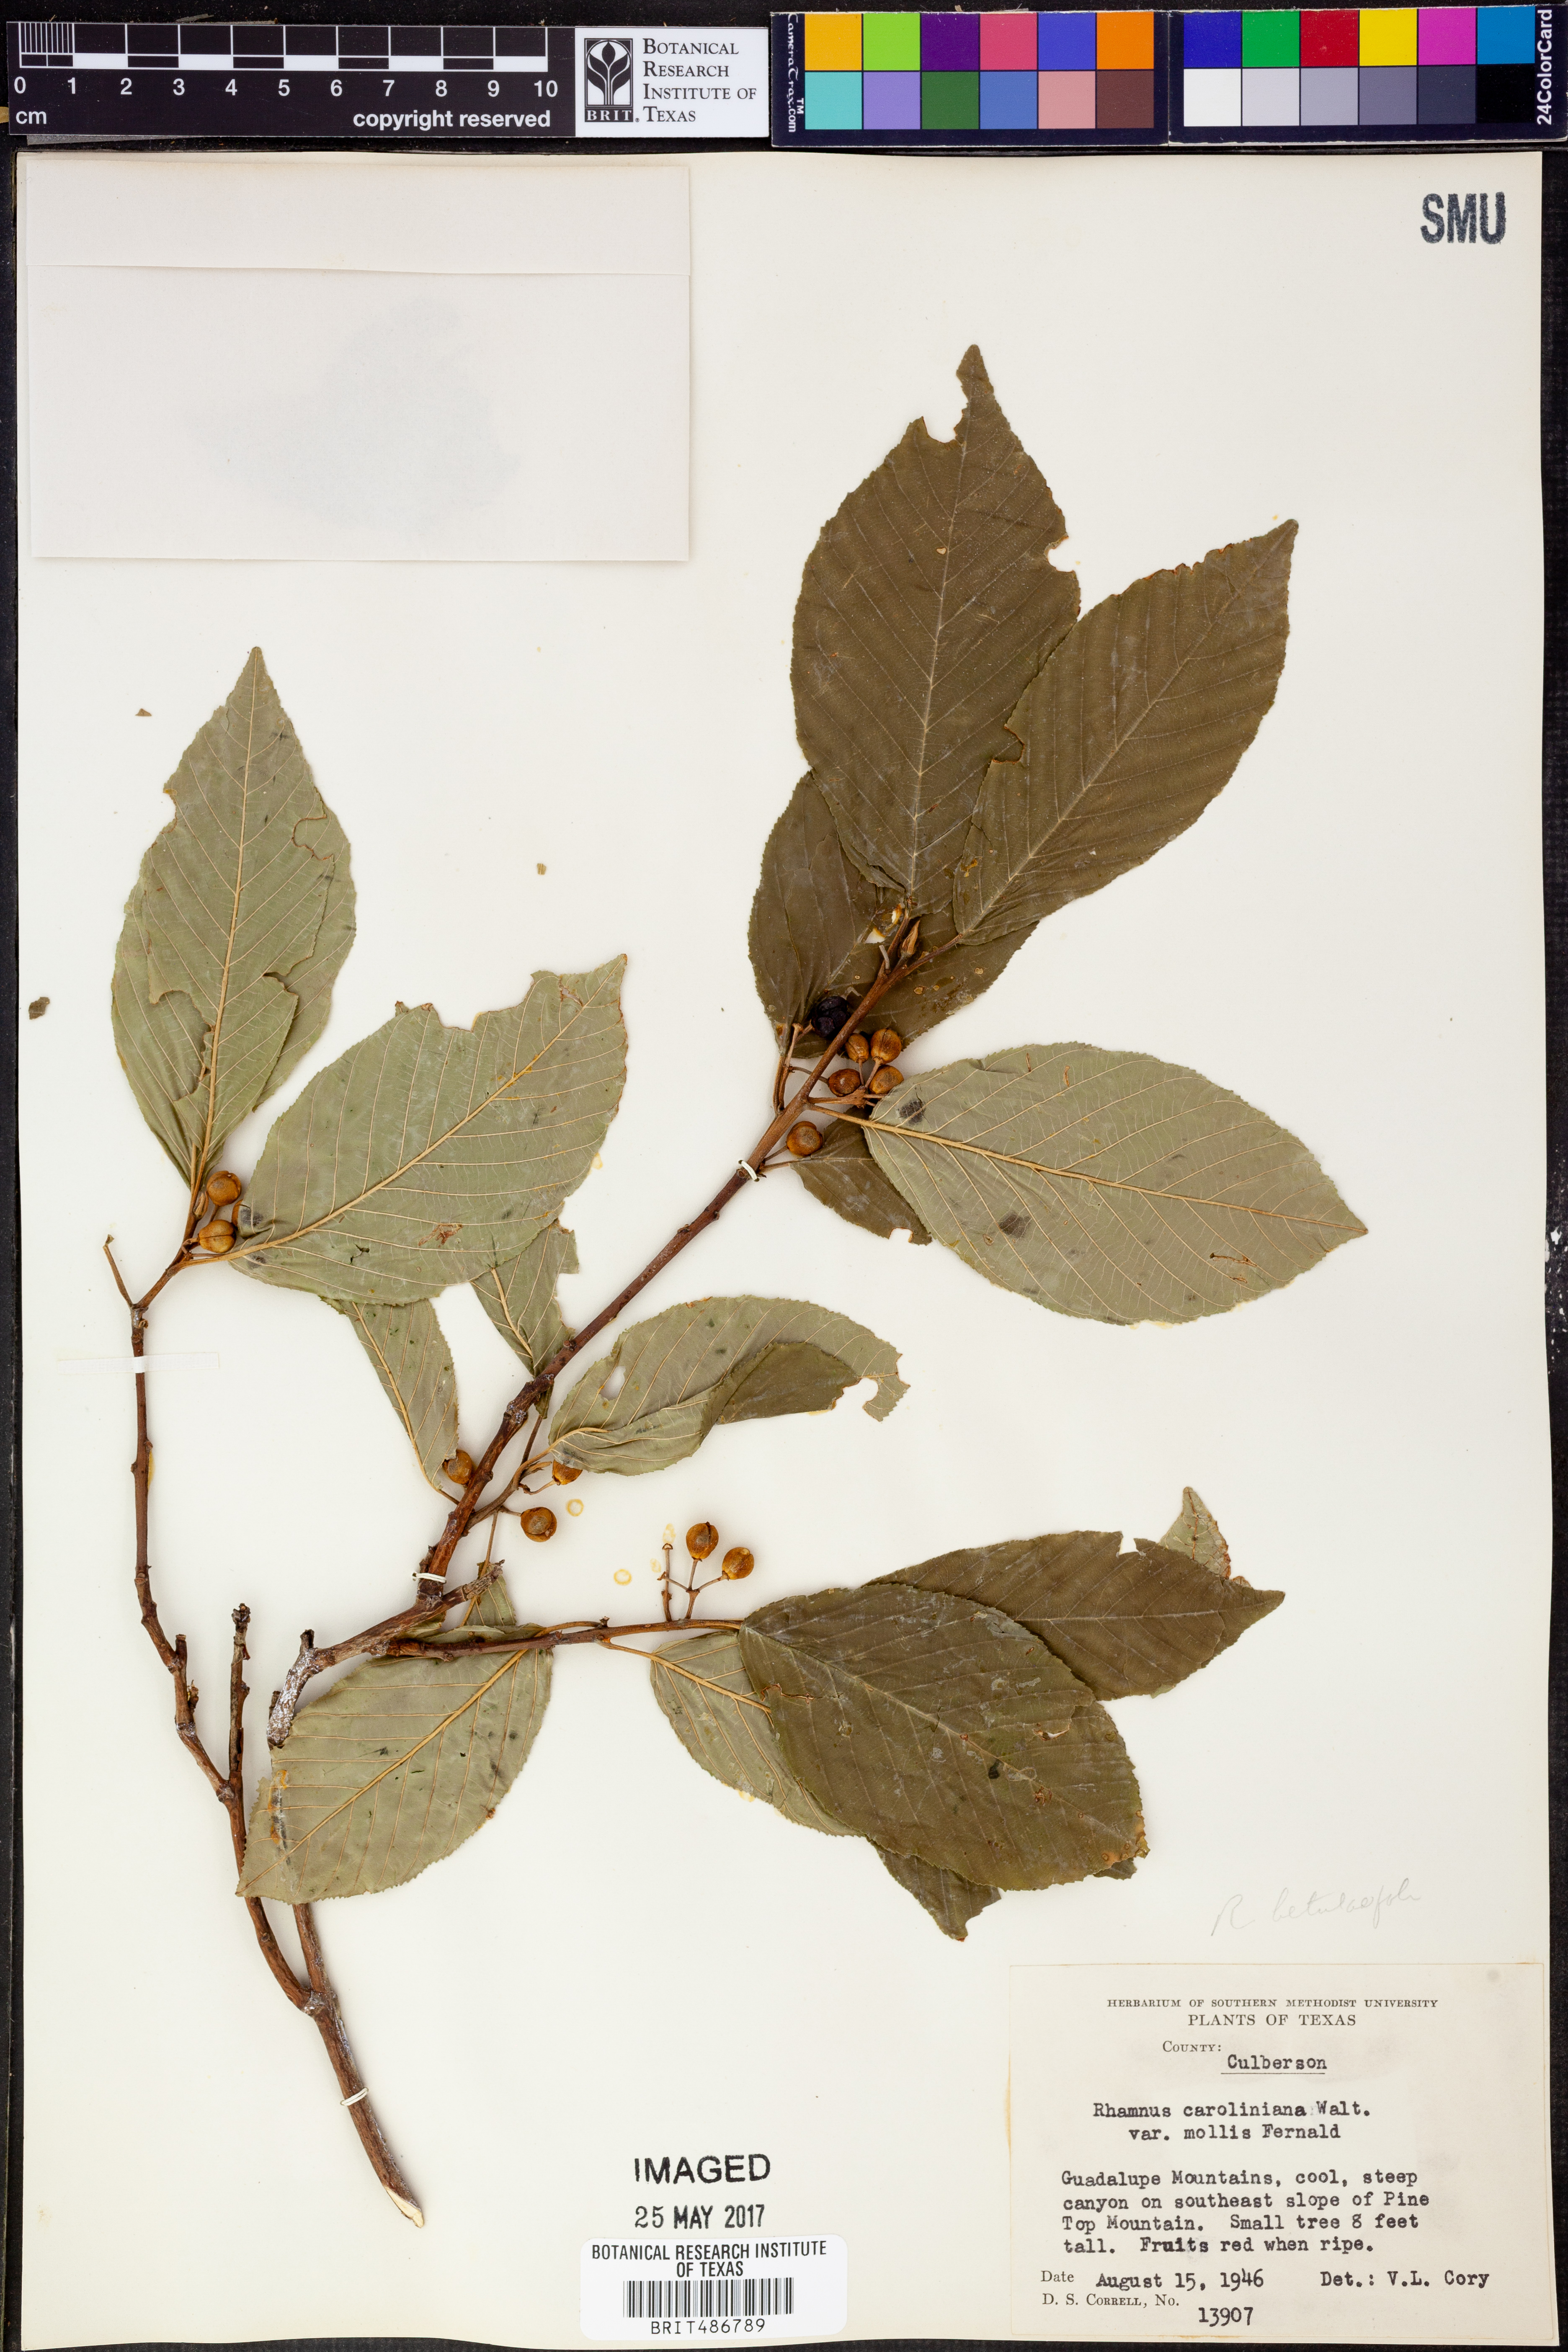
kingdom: Plantae
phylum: Tracheophyta
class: Magnoliopsida
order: Rosales
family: Rhamnaceae
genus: Frangula
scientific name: Frangula caroliniana
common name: Carolina buckthorn
